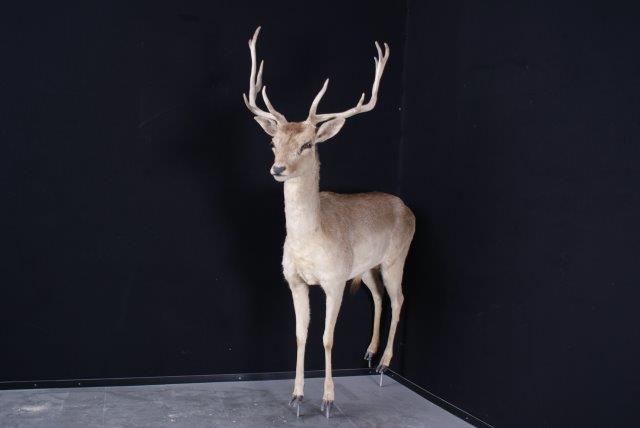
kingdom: Animalia
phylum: Chordata
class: Mammalia
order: Artiodactyla
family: Cervidae
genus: Dama
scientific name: Dama dama
